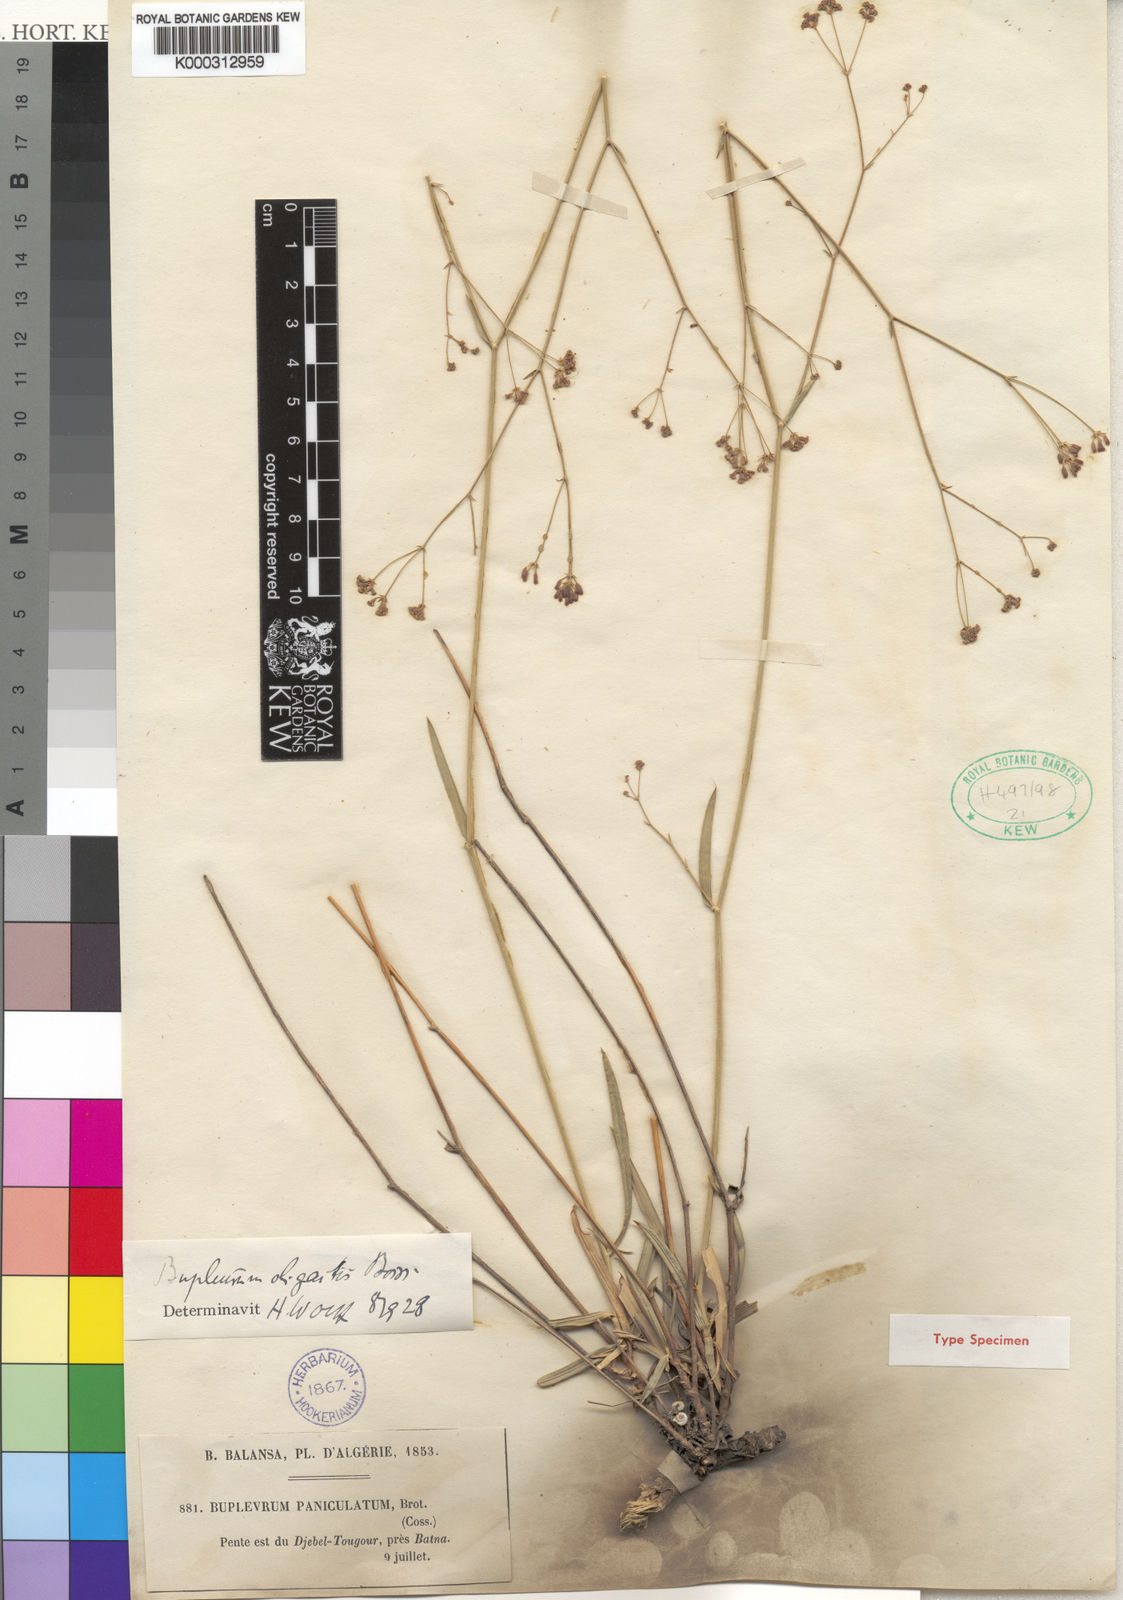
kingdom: Plantae
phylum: Tracheophyta
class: Magnoliopsida
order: Apiales
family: Apiaceae
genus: Bupleurum
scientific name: Bupleurum oligactis
